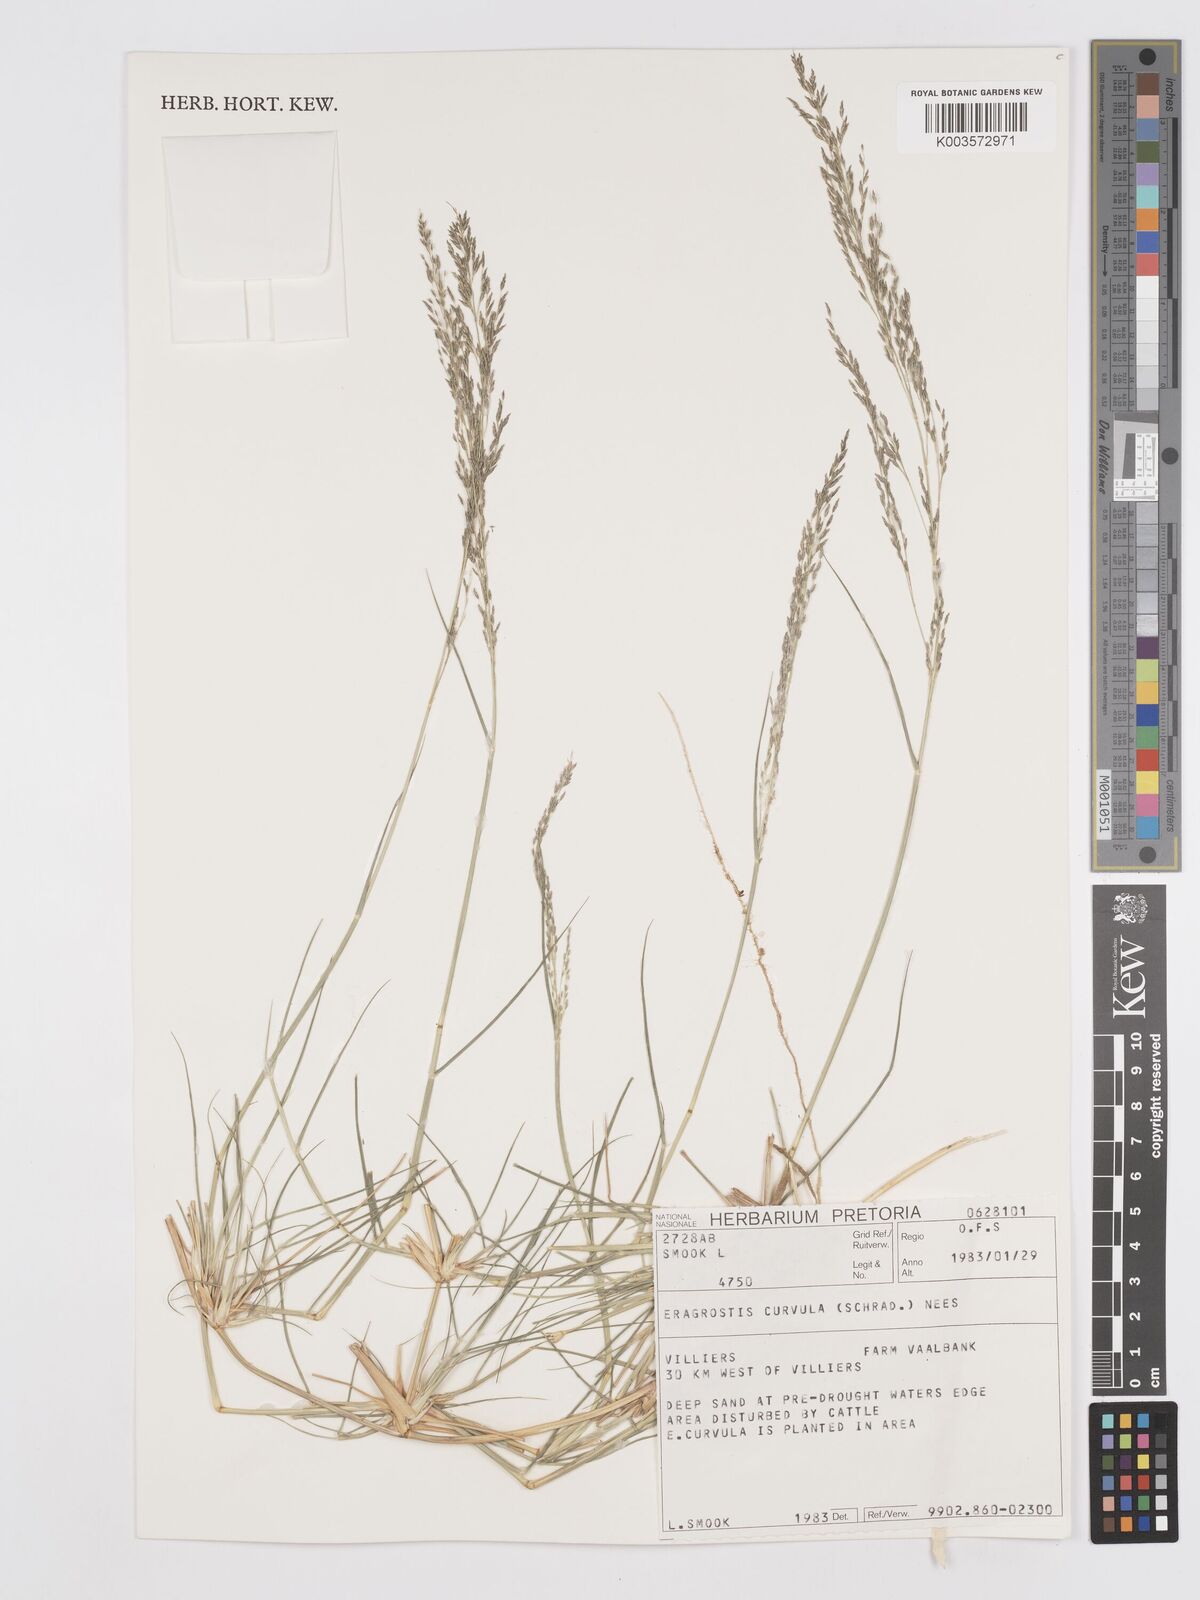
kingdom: Plantae
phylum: Tracheophyta
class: Liliopsida
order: Poales
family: Poaceae
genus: Eragrostis
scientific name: Eragrostis curvula
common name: African love-grass
